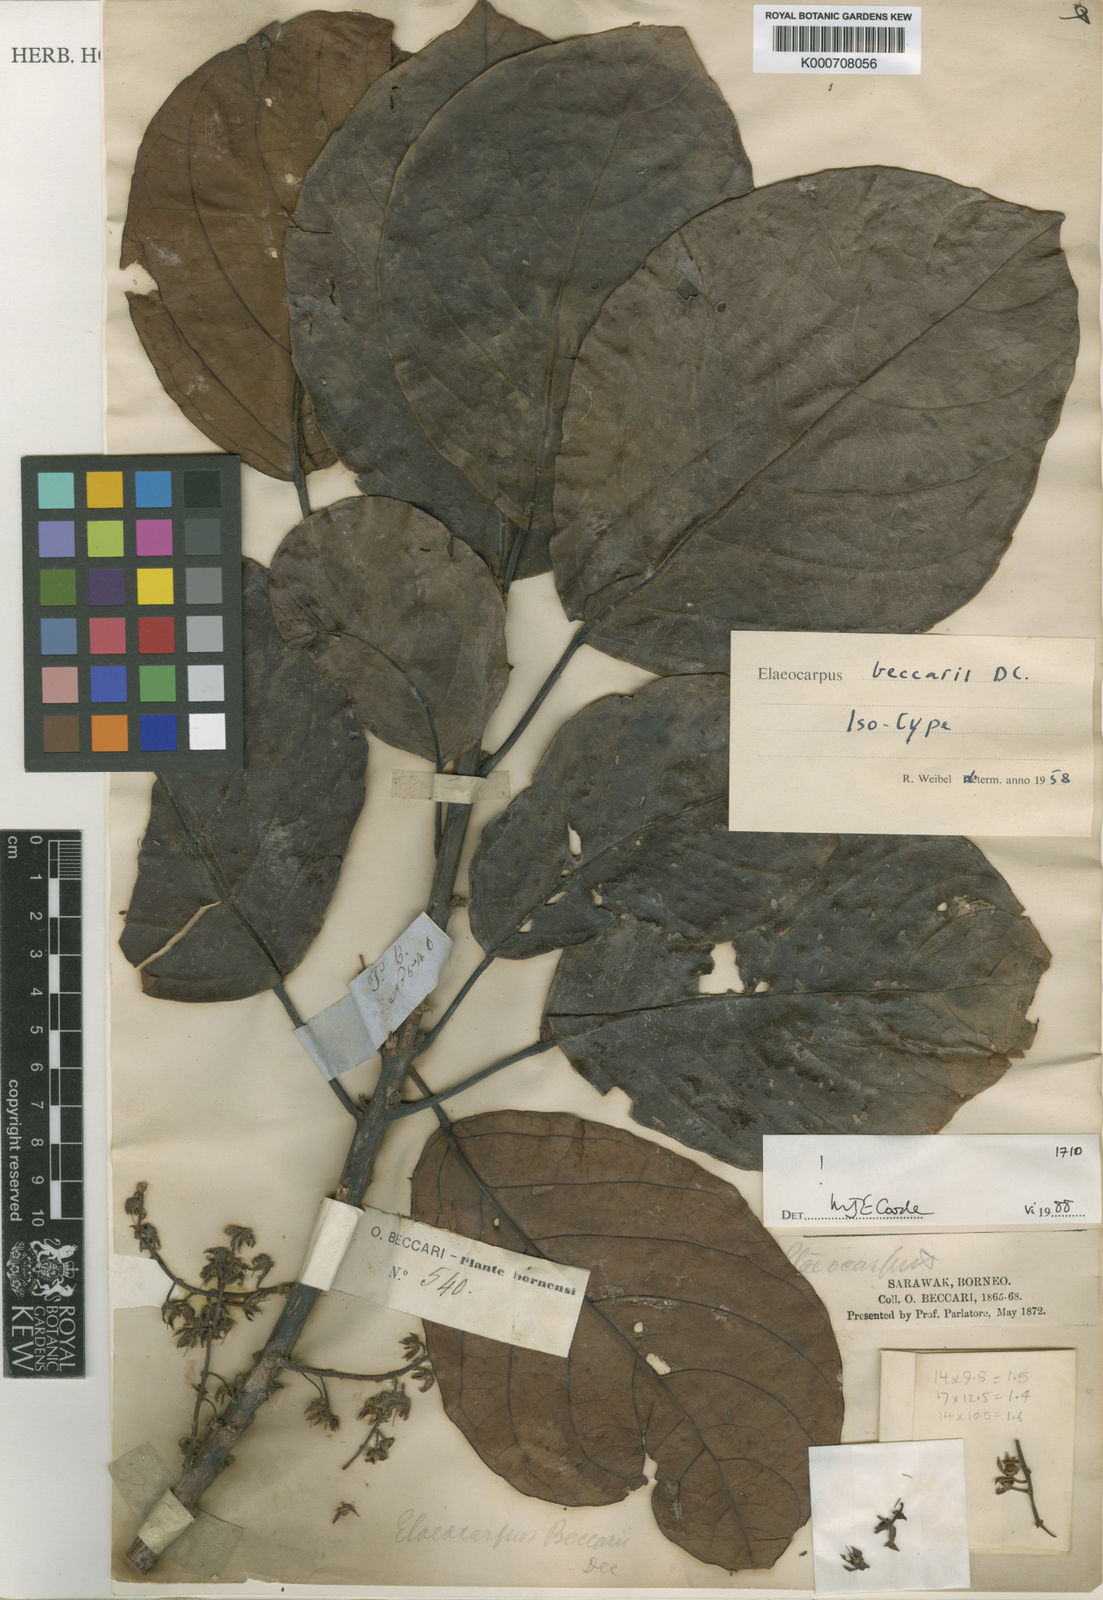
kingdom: Plantae
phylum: Tracheophyta
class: Magnoliopsida
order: Oxalidales
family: Elaeocarpaceae
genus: Elaeocarpus
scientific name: Elaeocarpus beccarii
